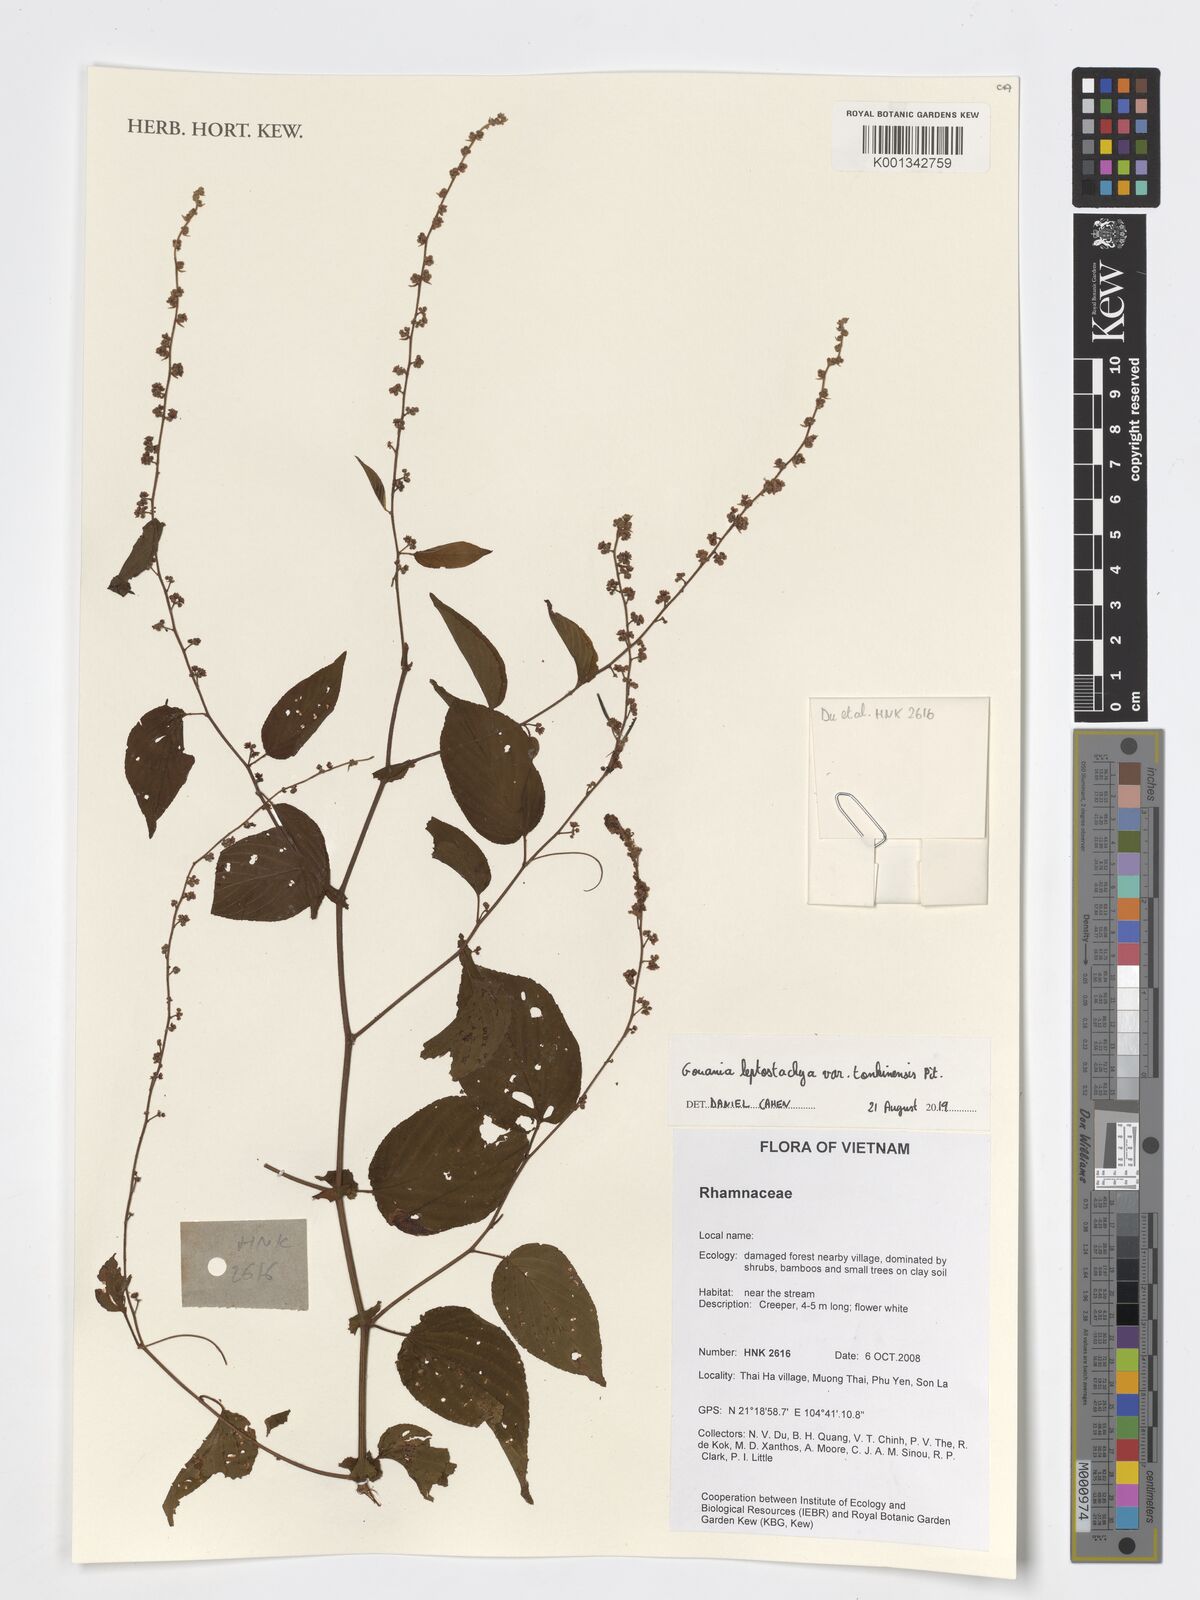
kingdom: Plantae
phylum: Tracheophyta
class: Magnoliopsida
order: Rosales
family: Rhamnaceae
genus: Gouania
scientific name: Gouania leptostachya
